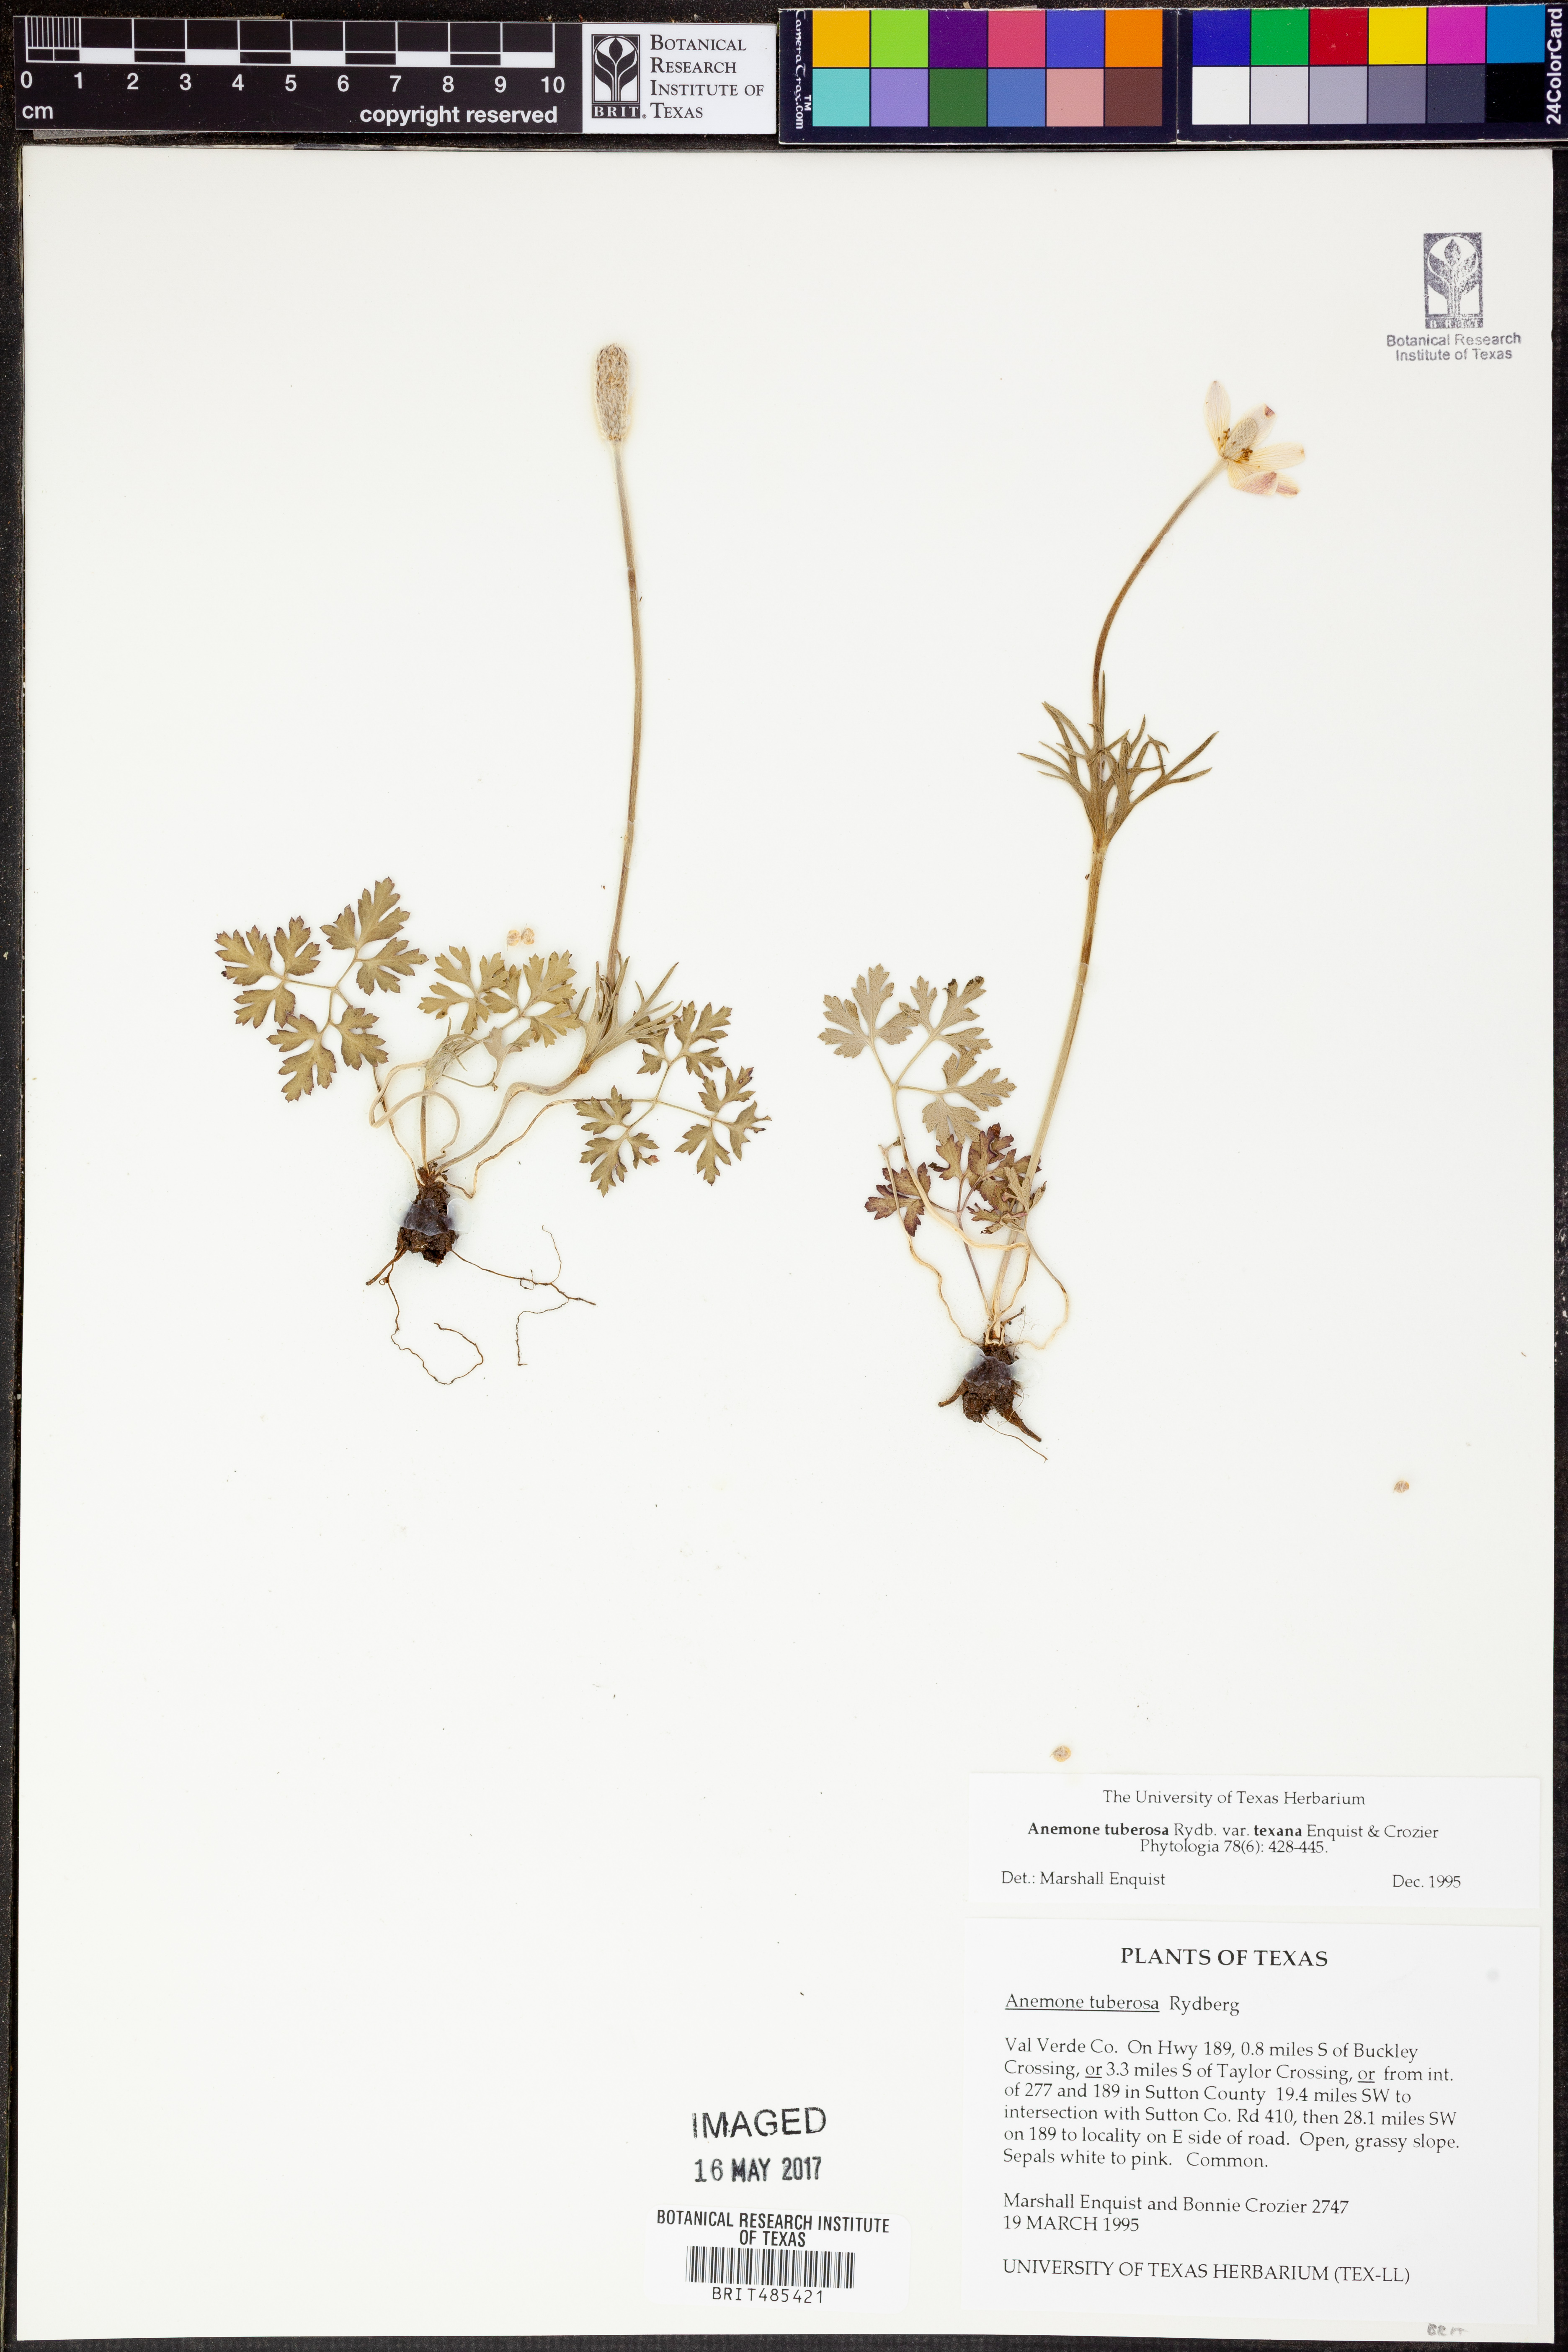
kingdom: Plantae
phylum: Tracheophyta
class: Magnoliopsida
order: Ranunculales
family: Ranunculaceae
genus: Anemone
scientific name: Anemone tuberosa
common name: Desert anemone
